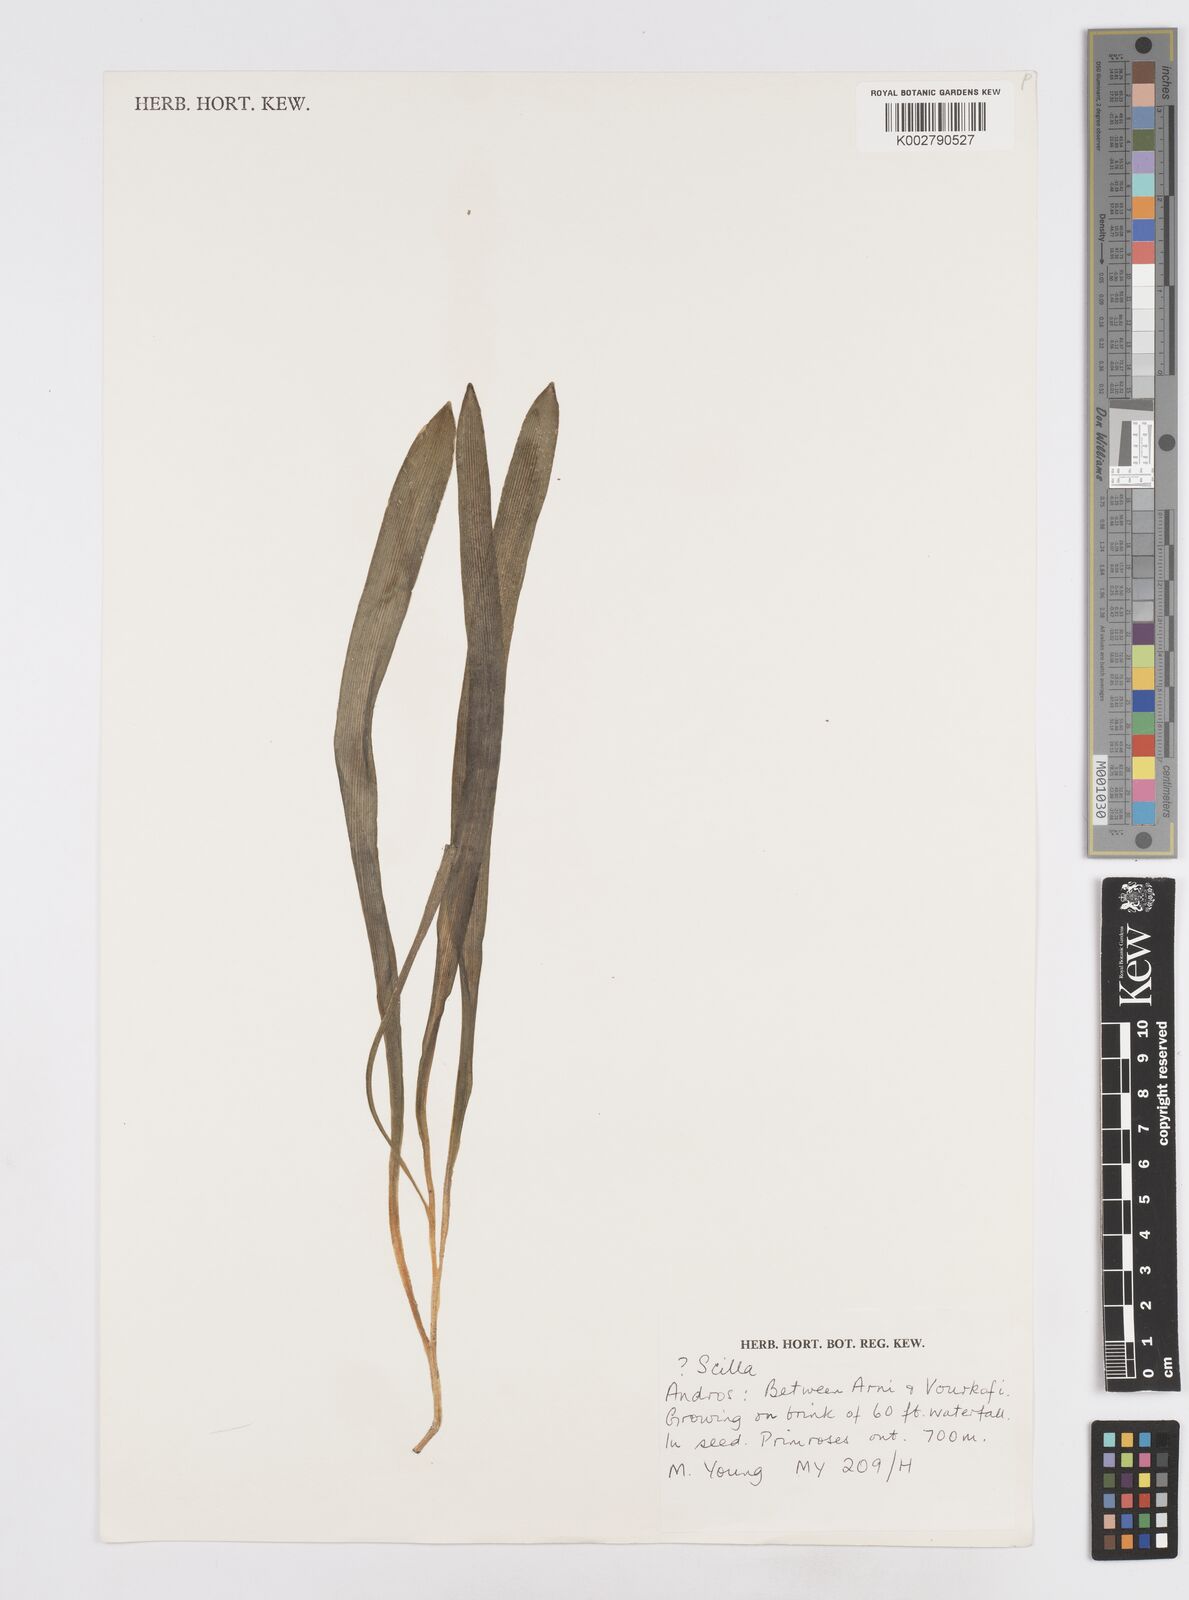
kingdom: Plantae
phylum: Tracheophyta
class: Liliopsida
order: Asparagales
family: Asparagaceae
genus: Scilla
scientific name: Scilla
